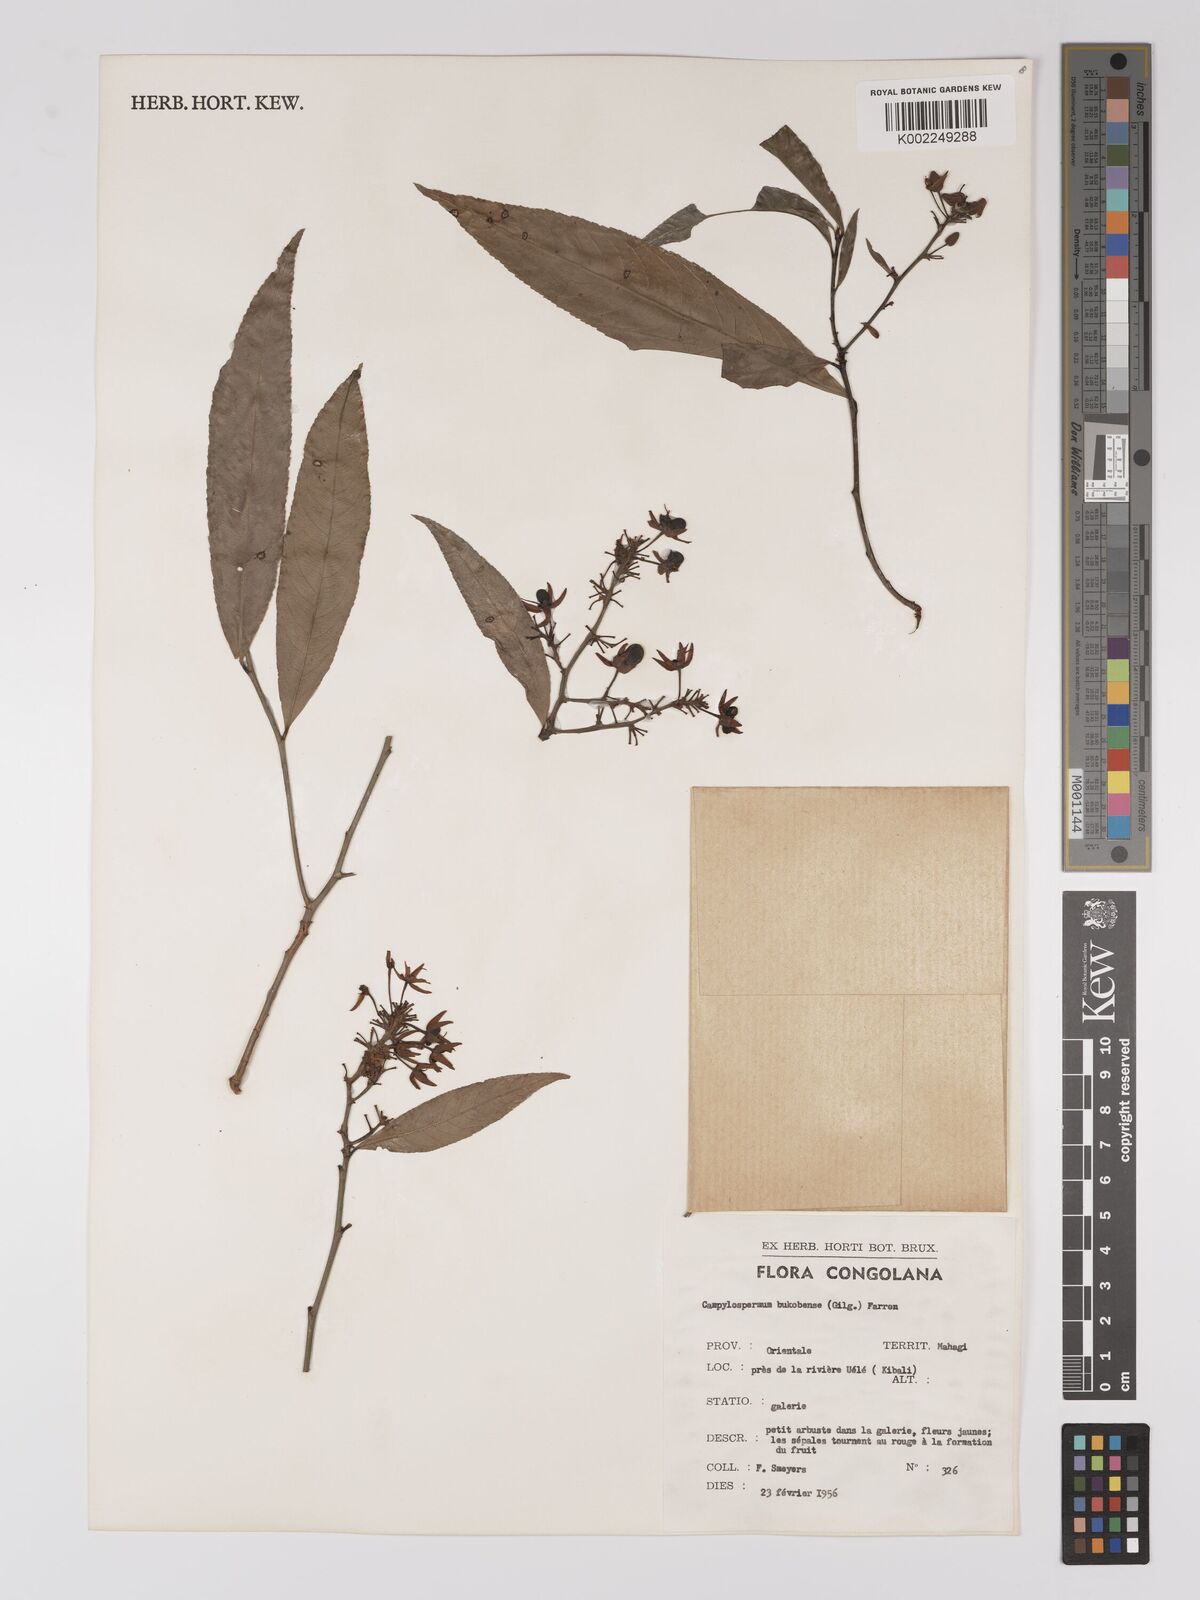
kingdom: Plantae
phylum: Tracheophyta
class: Magnoliopsida
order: Malpighiales
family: Ochnaceae
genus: Campylospermum
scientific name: Campylospermum likimiense
